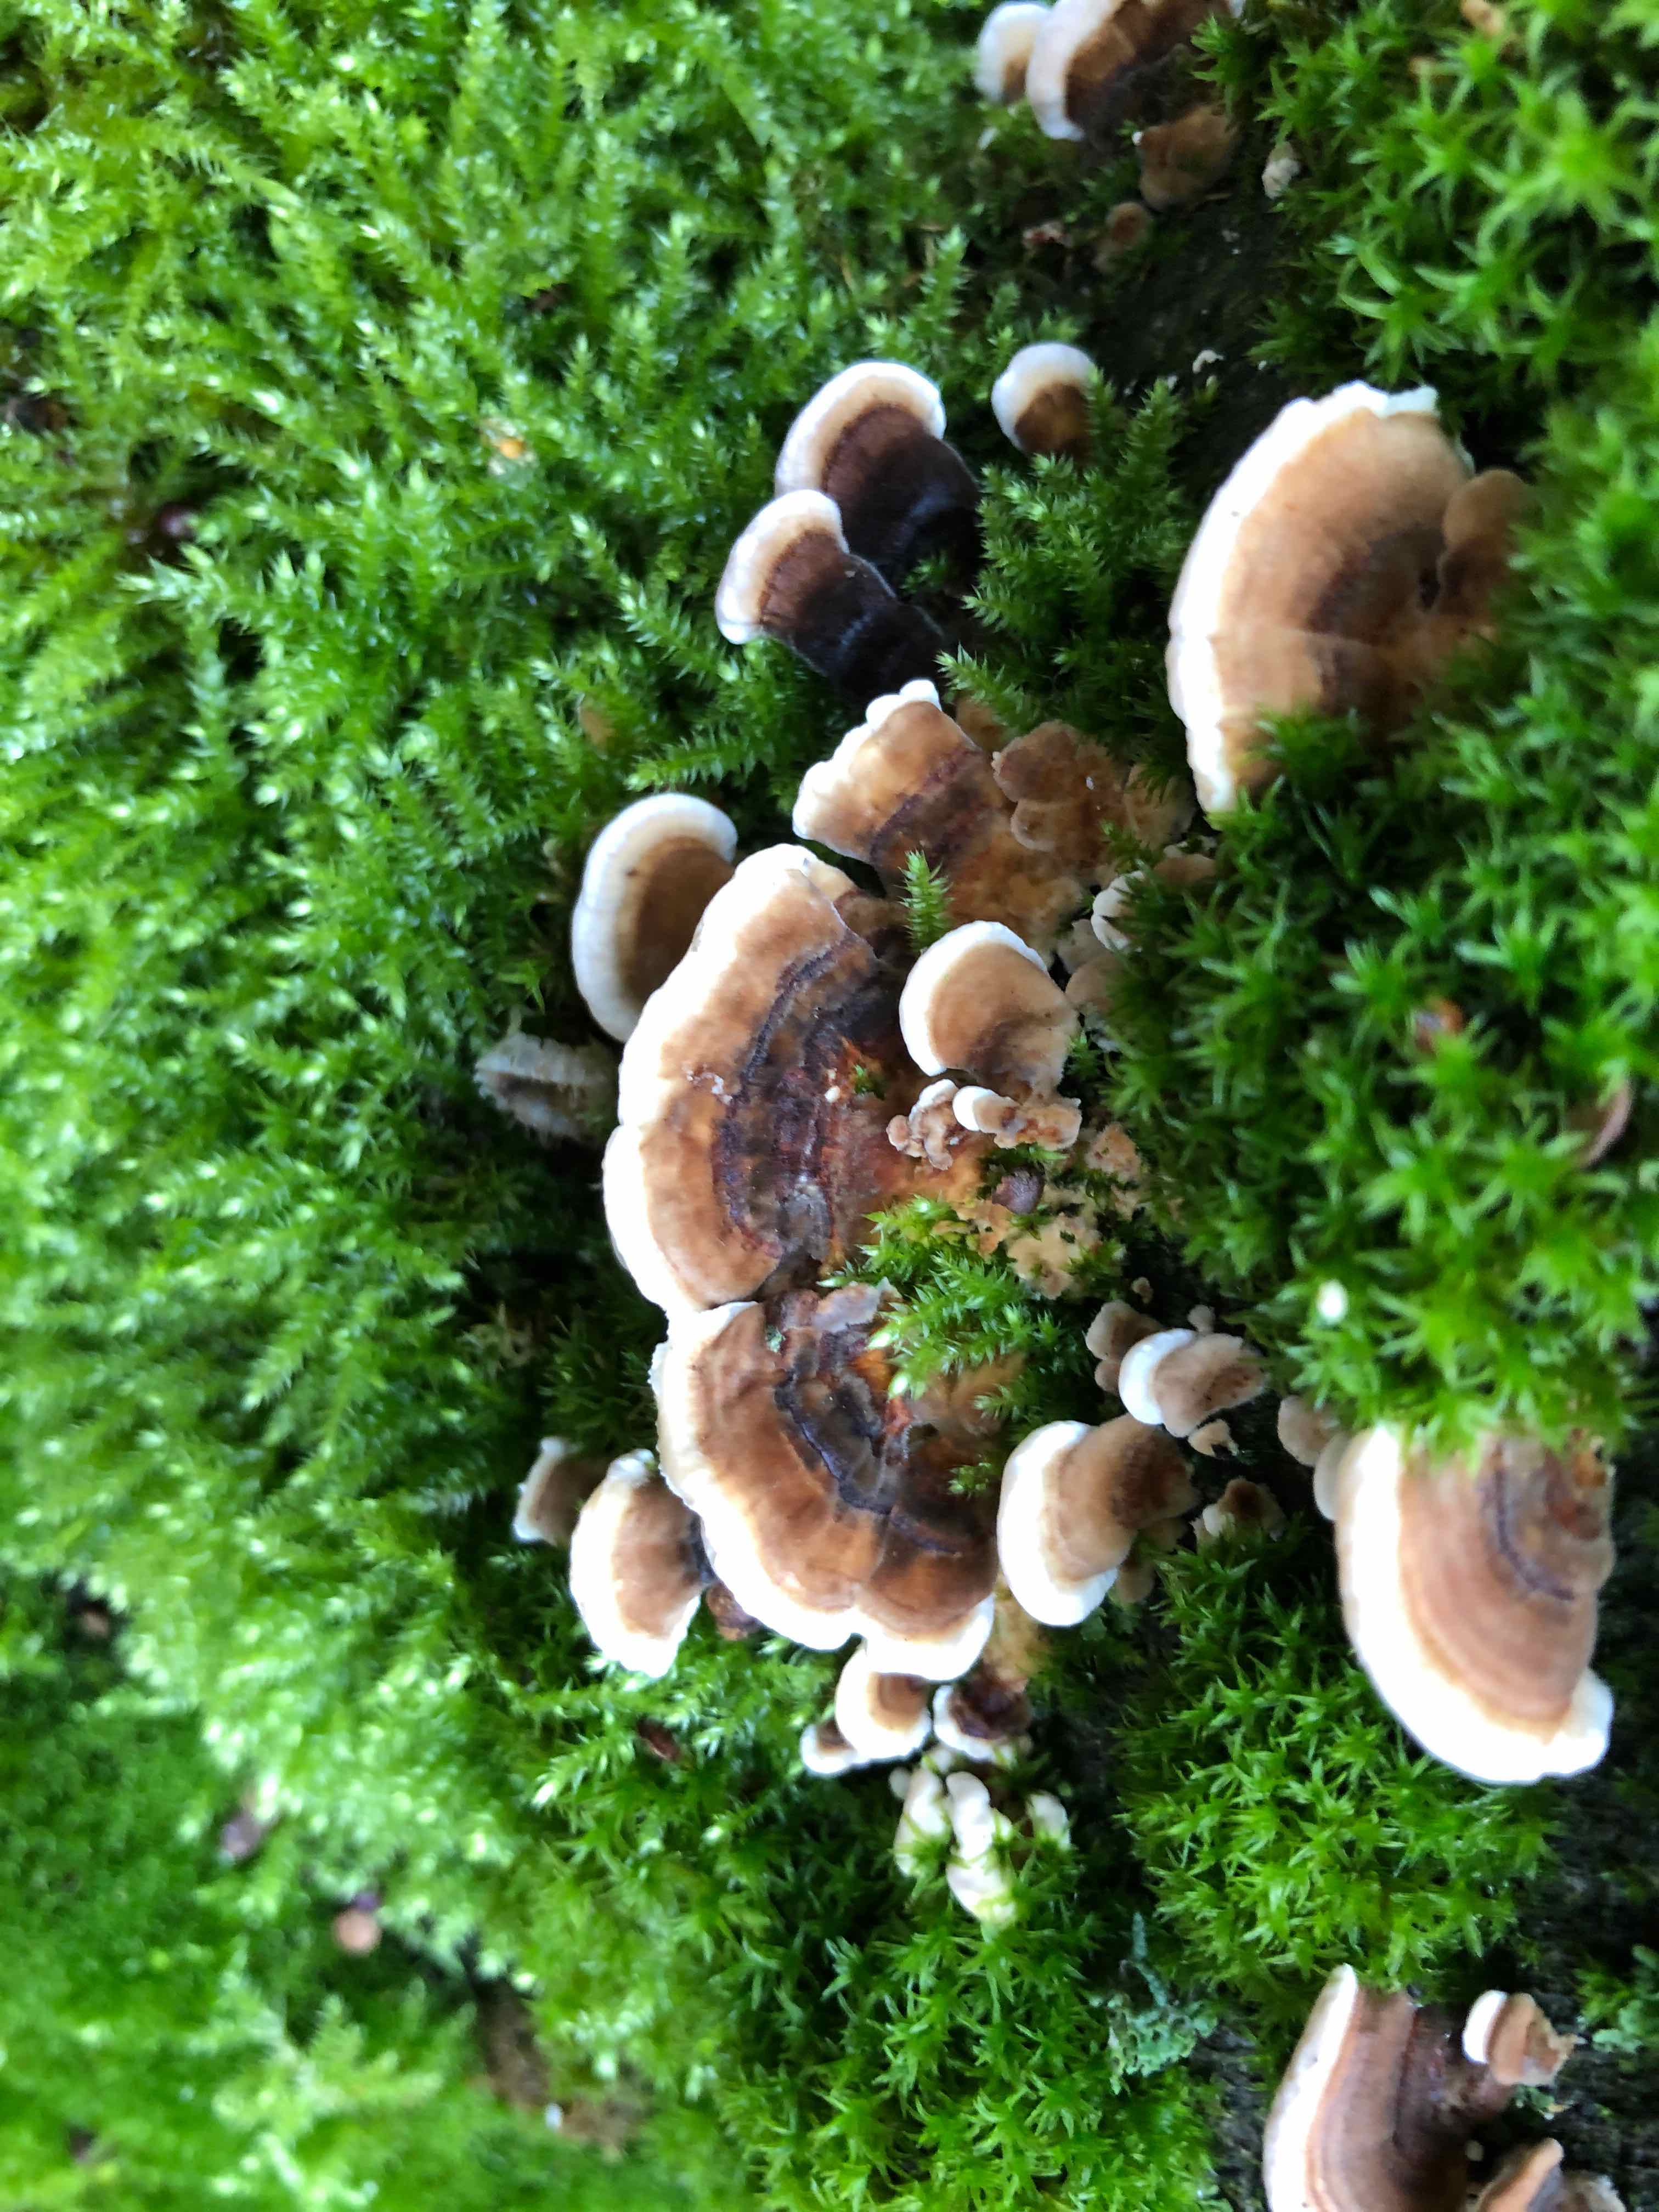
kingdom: Fungi
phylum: Basidiomycota
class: Agaricomycetes
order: Polyporales
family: Polyporaceae
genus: Trametes
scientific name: Trametes versicolor
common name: broget læderporesvamp
